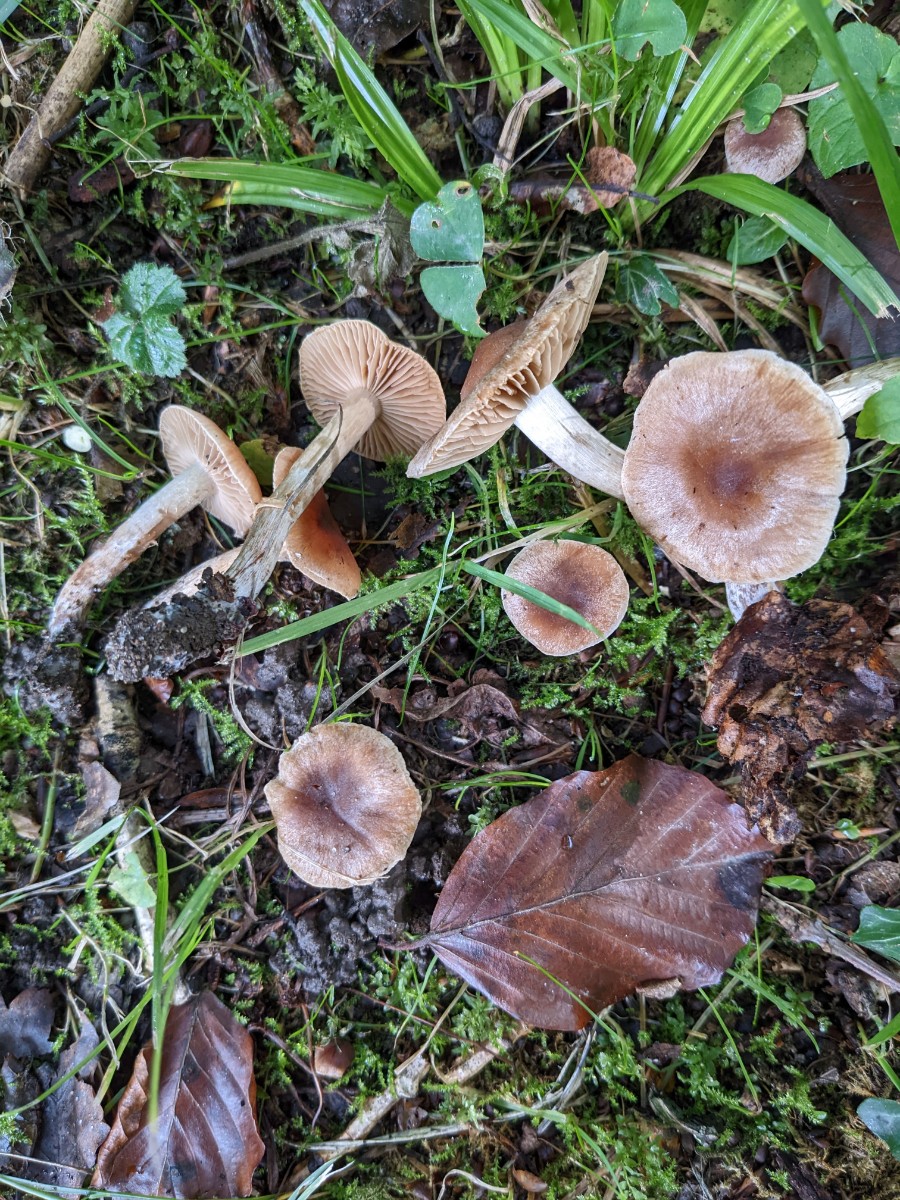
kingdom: Fungi
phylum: Basidiomycota
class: Agaricomycetes
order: Agaricales
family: Cortinariaceae
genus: Cortinarius
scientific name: Cortinarius epipurrus
